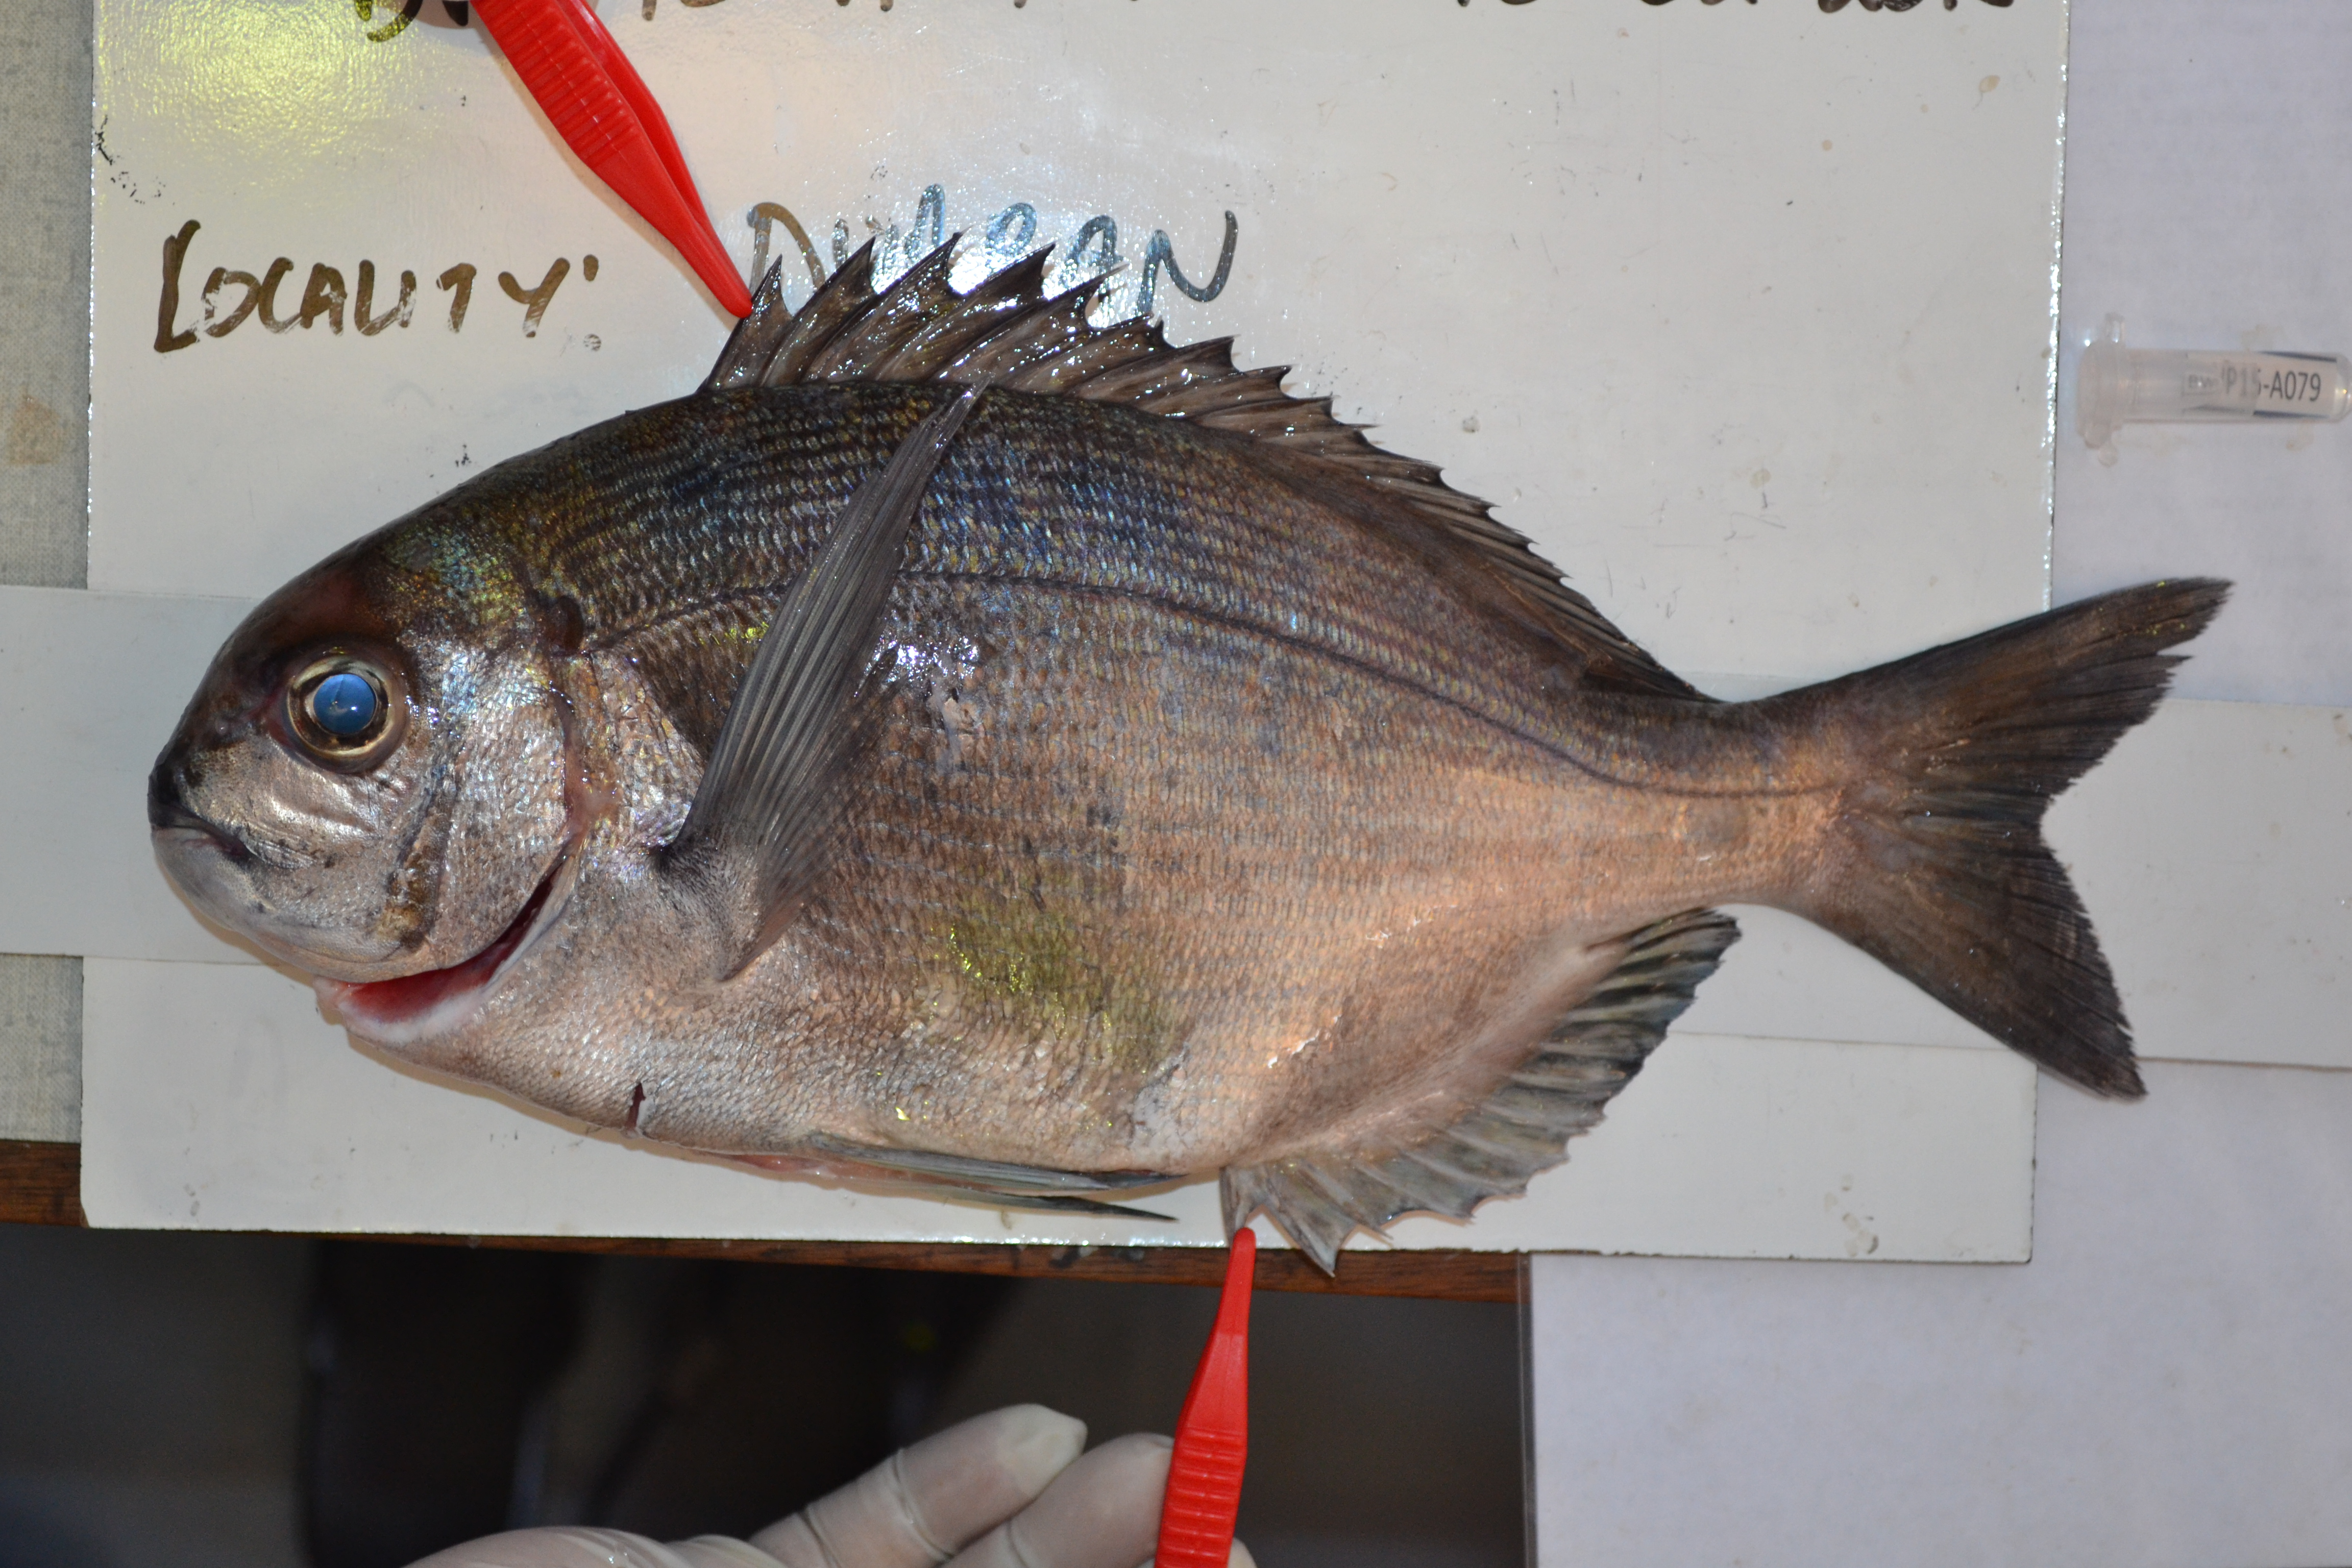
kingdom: Animalia
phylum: Chordata
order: Perciformes
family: Sparidae
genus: Pachymetopon
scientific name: Pachymetopon
